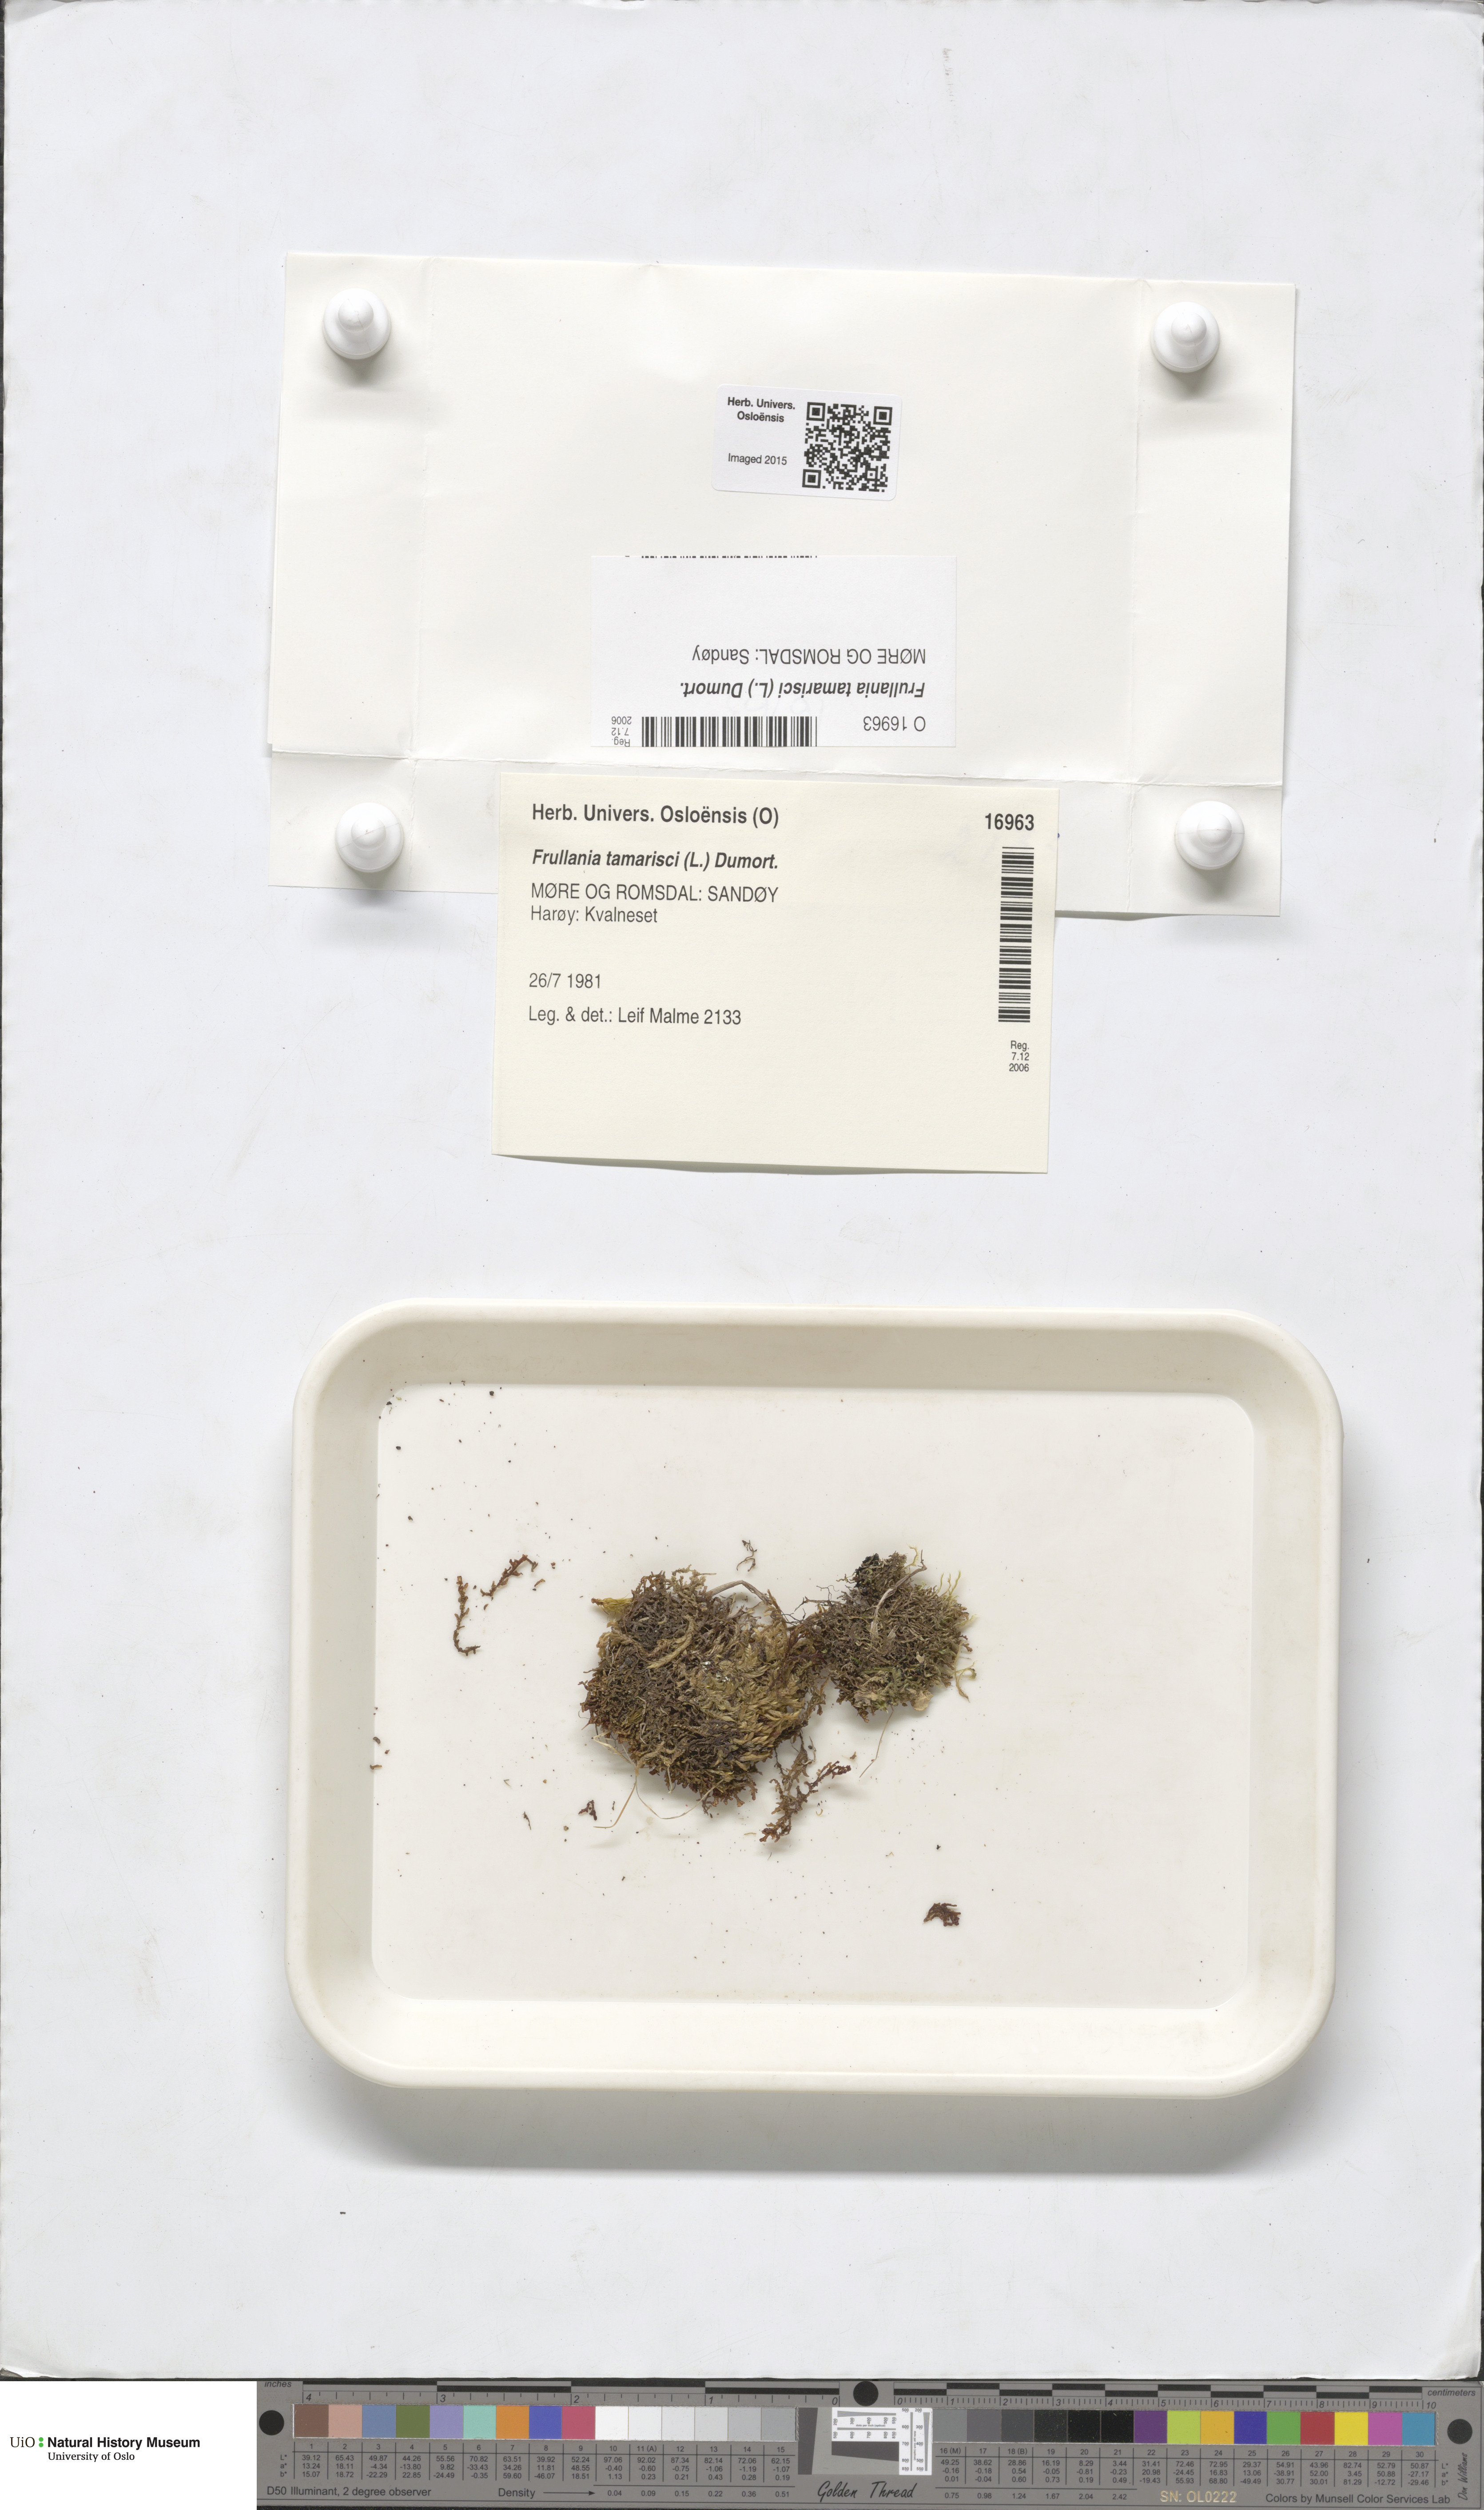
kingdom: Plantae
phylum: Marchantiophyta
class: Jungermanniopsida
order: Porellales
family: Frullaniaceae
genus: Frullania
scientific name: Frullania tamarisci
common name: Tamarisk scalewort
